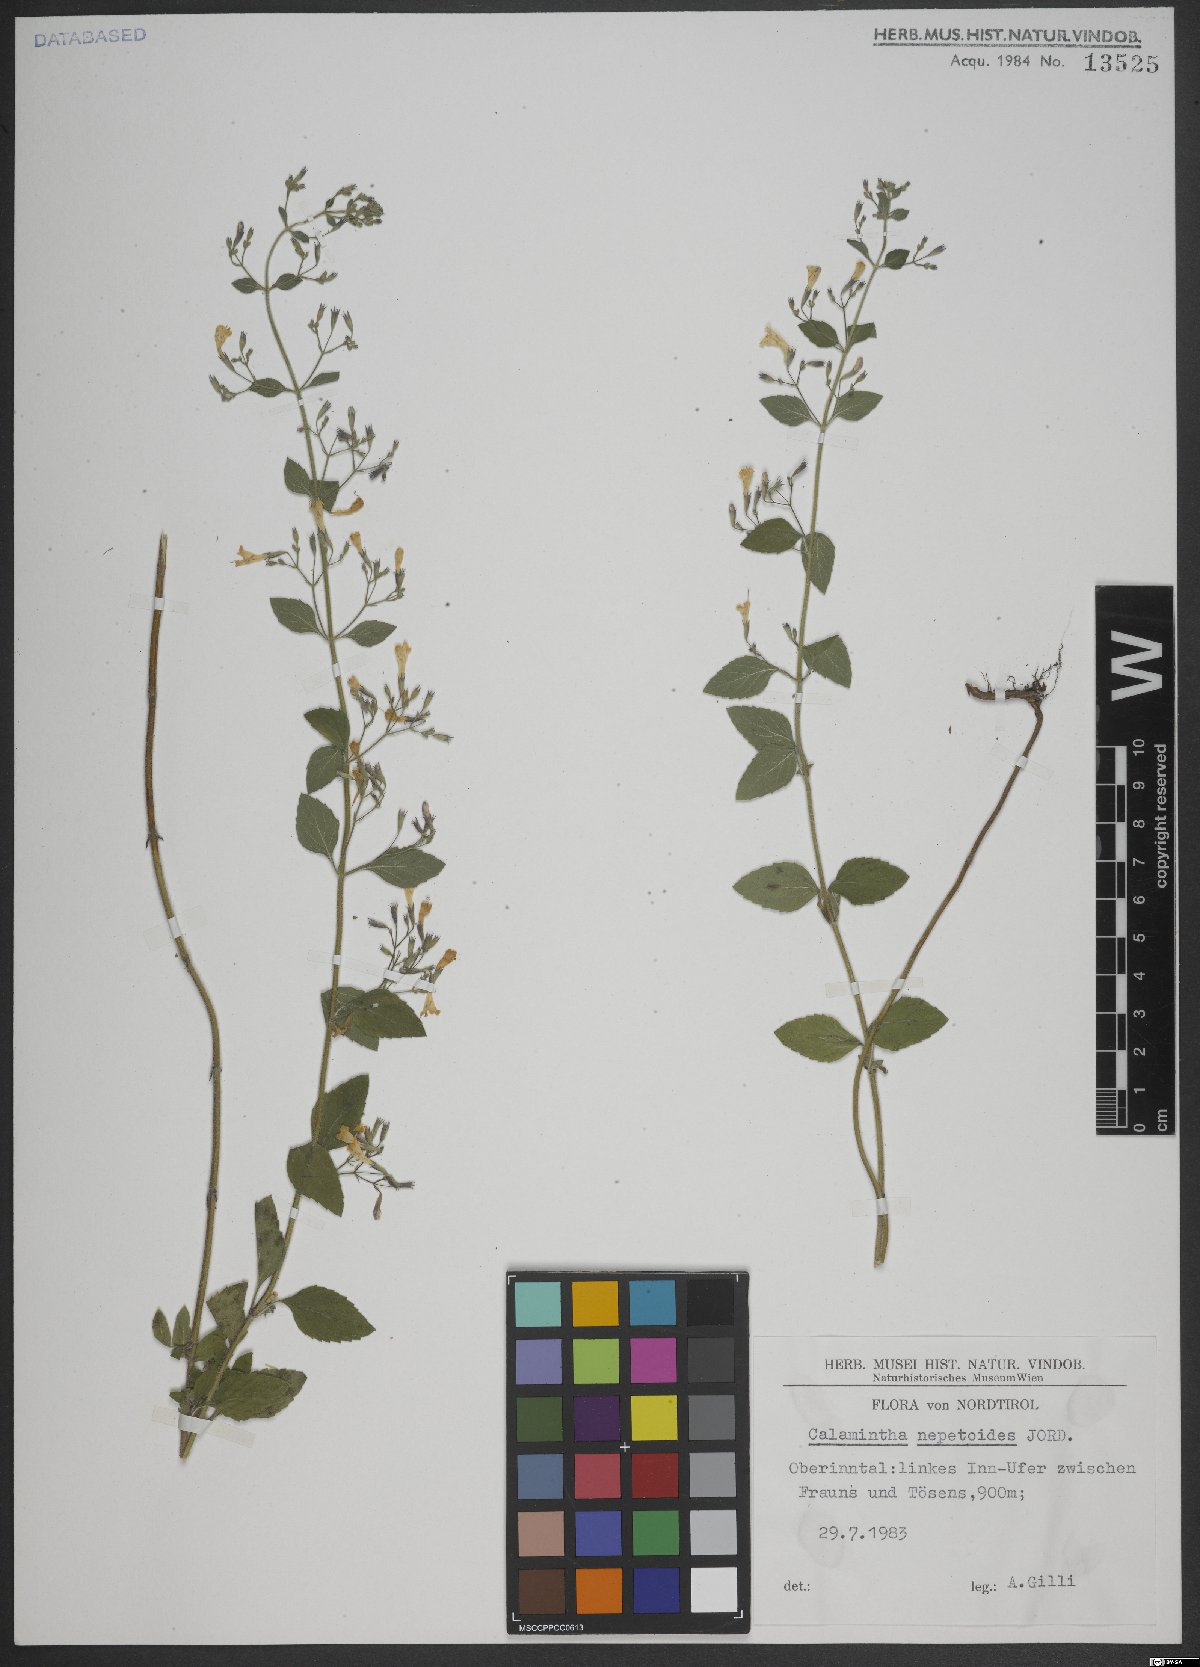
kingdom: Plantae
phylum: Tracheophyta
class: Magnoliopsida
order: Lamiales
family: Lamiaceae
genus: Clinopodium
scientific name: Clinopodium nepeta
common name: Lesser calamint
